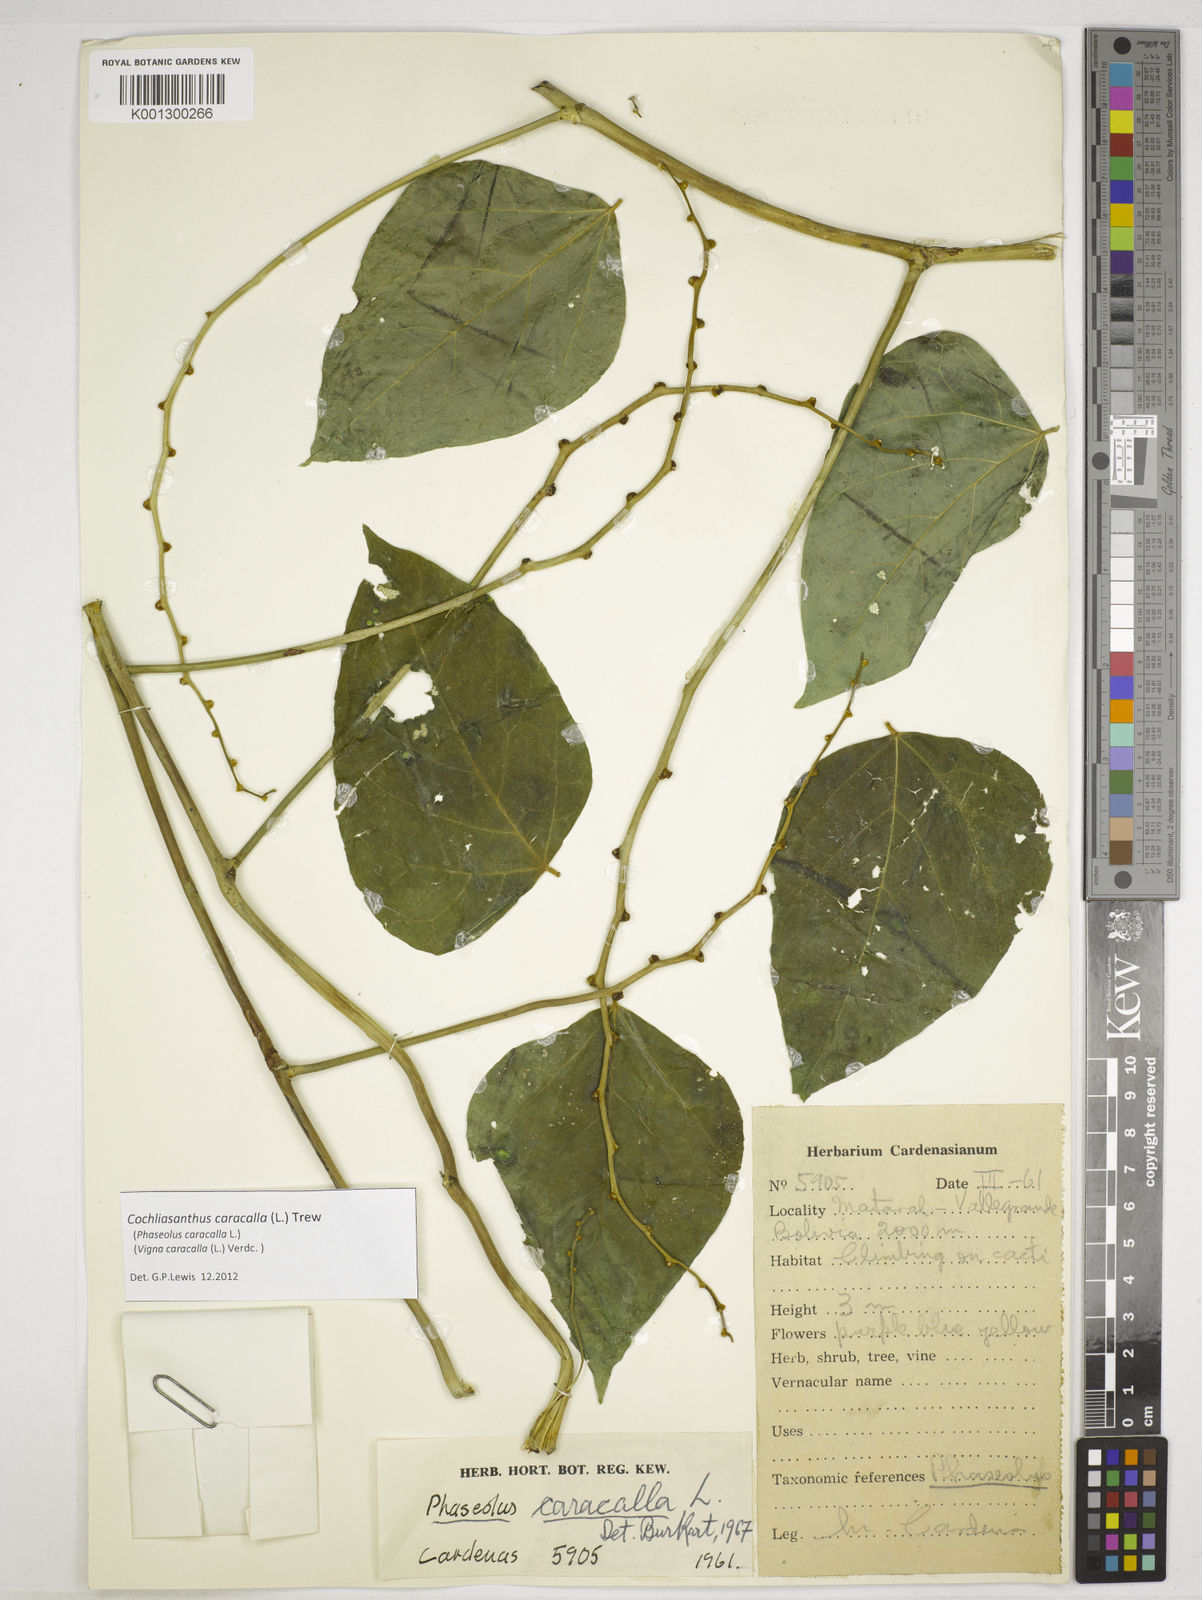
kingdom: Plantae
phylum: Tracheophyta
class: Magnoliopsida
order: Fabales
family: Fabaceae
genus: Cochliasanthus
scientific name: Cochliasanthus caracalla
